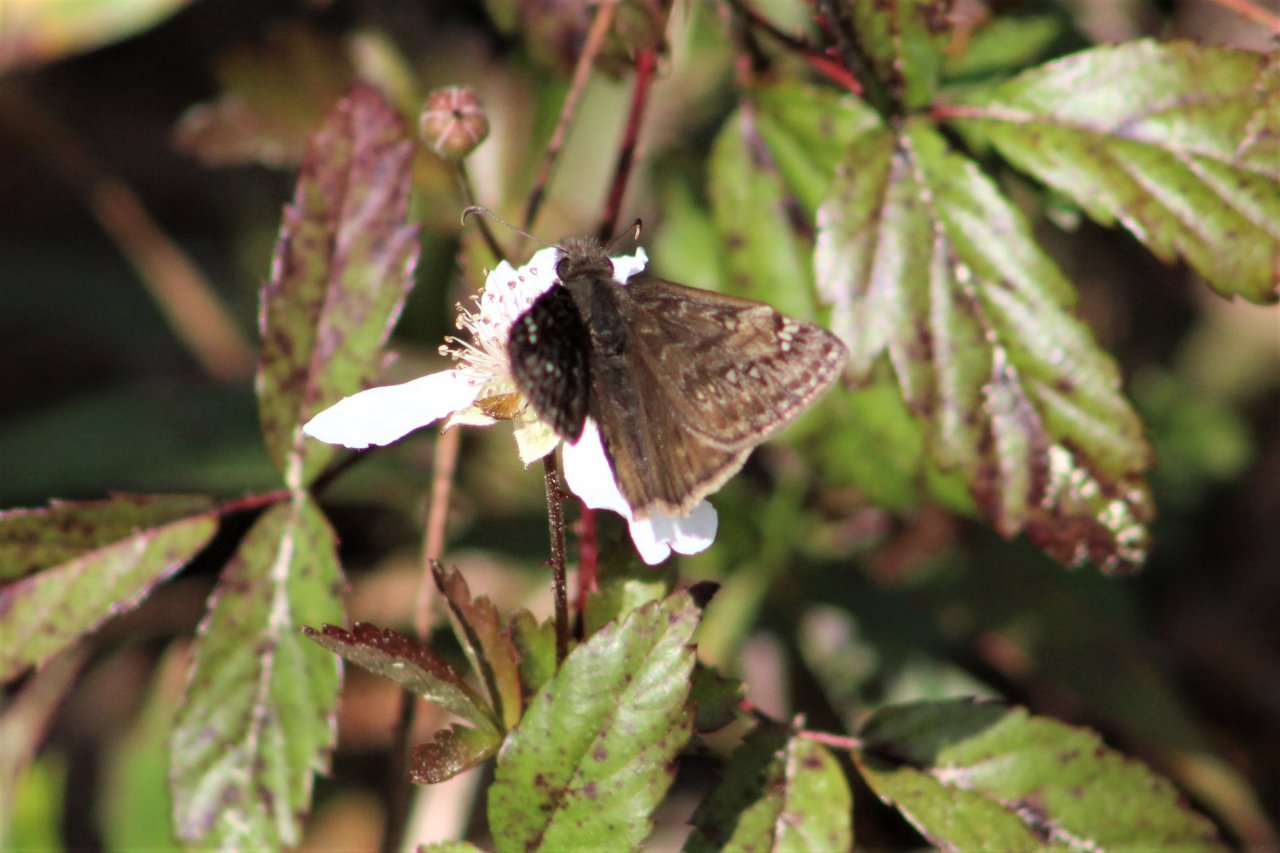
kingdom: Animalia
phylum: Arthropoda
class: Insecta
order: Lepidoptera
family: Hesperiidae
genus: Gesta
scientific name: Gesta
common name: Horace's Duskywing
